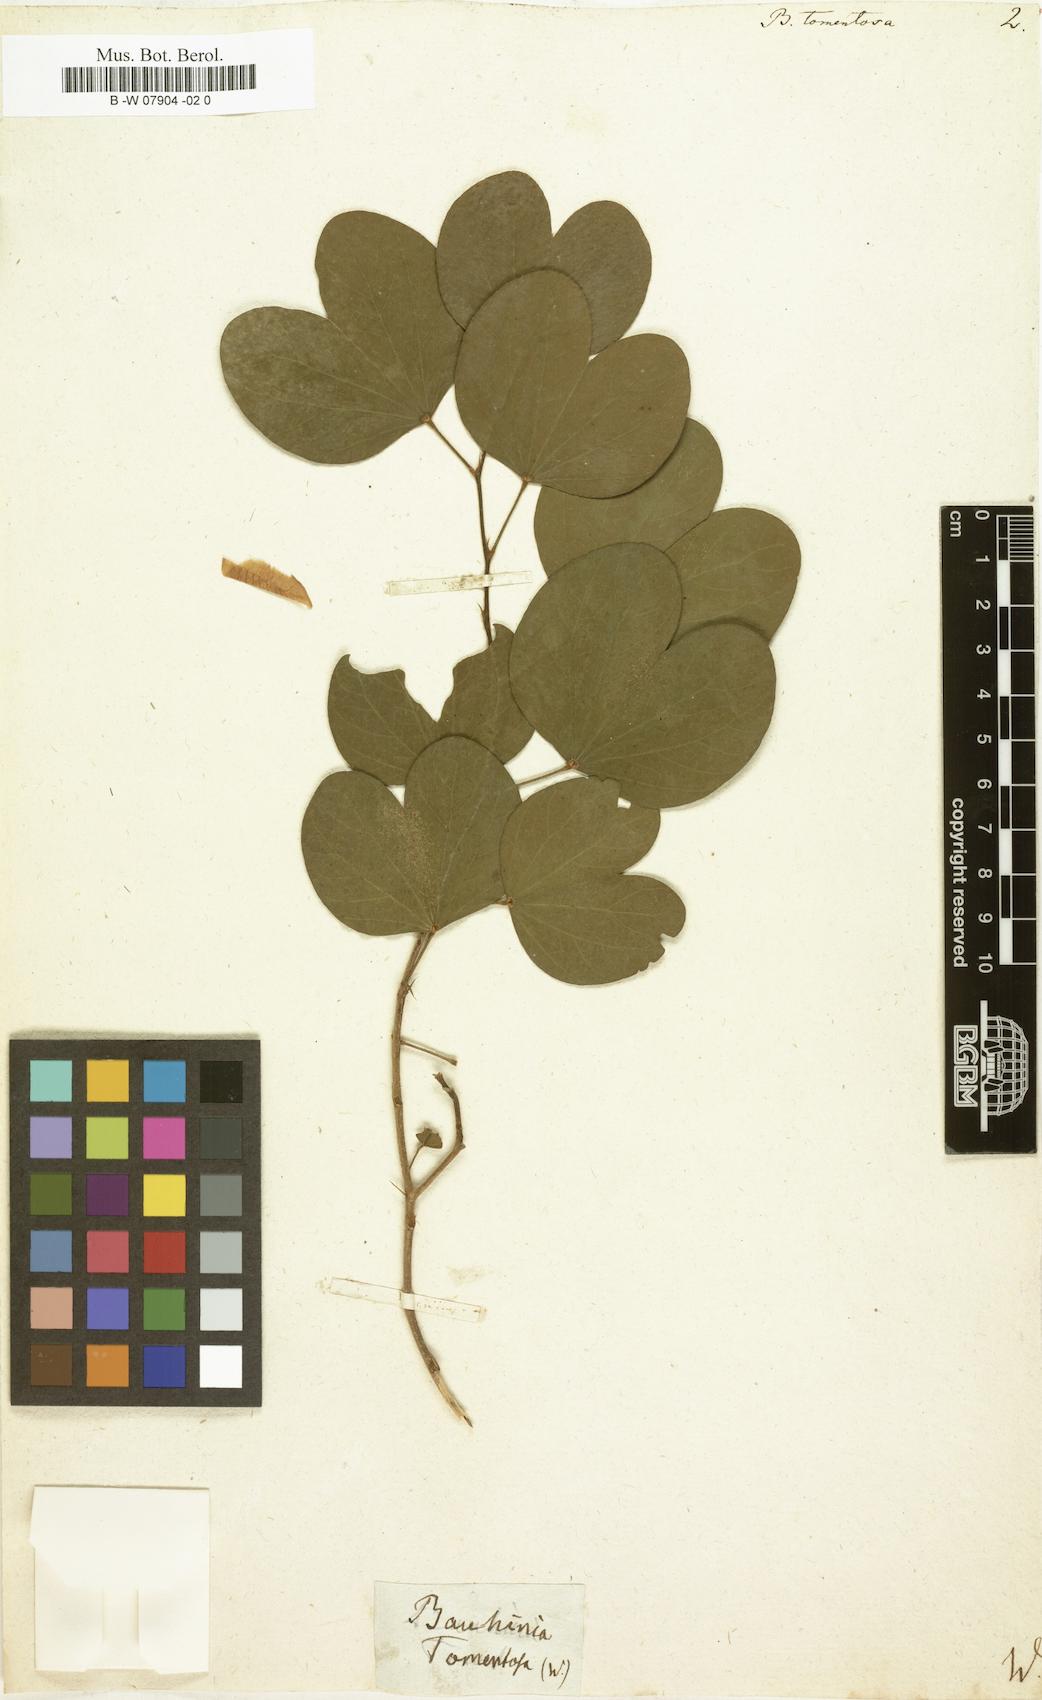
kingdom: Plantae
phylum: Tracheophyta
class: Magnoliopsida
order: Fabales
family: Fabaceae
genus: Bauhinia
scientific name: Bauhinia tomentosa
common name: Bell bauhinia
